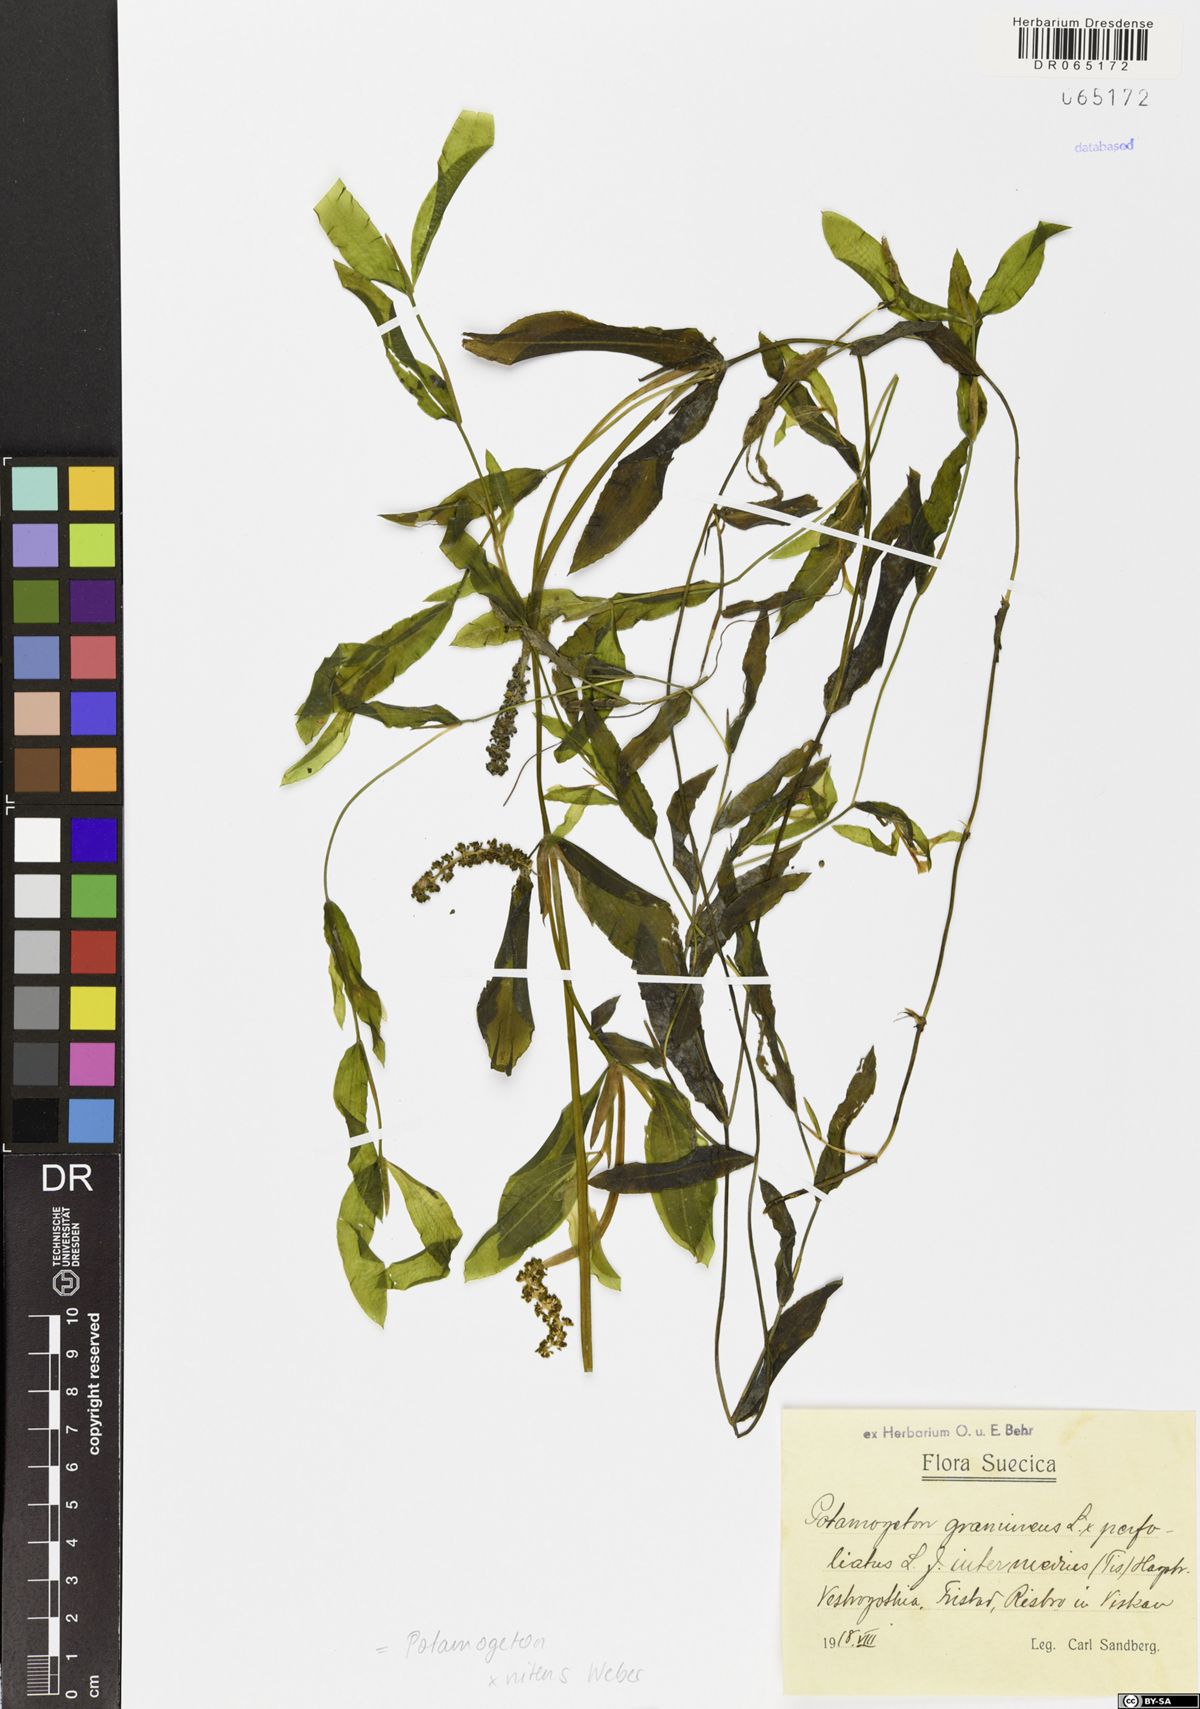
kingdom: Plantae
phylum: Tracheophyta
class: Liliopsida
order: Alismatales
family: Potamogetonaceae
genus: Potamogeton
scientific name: Potamogeton nitens
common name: Pondweed
